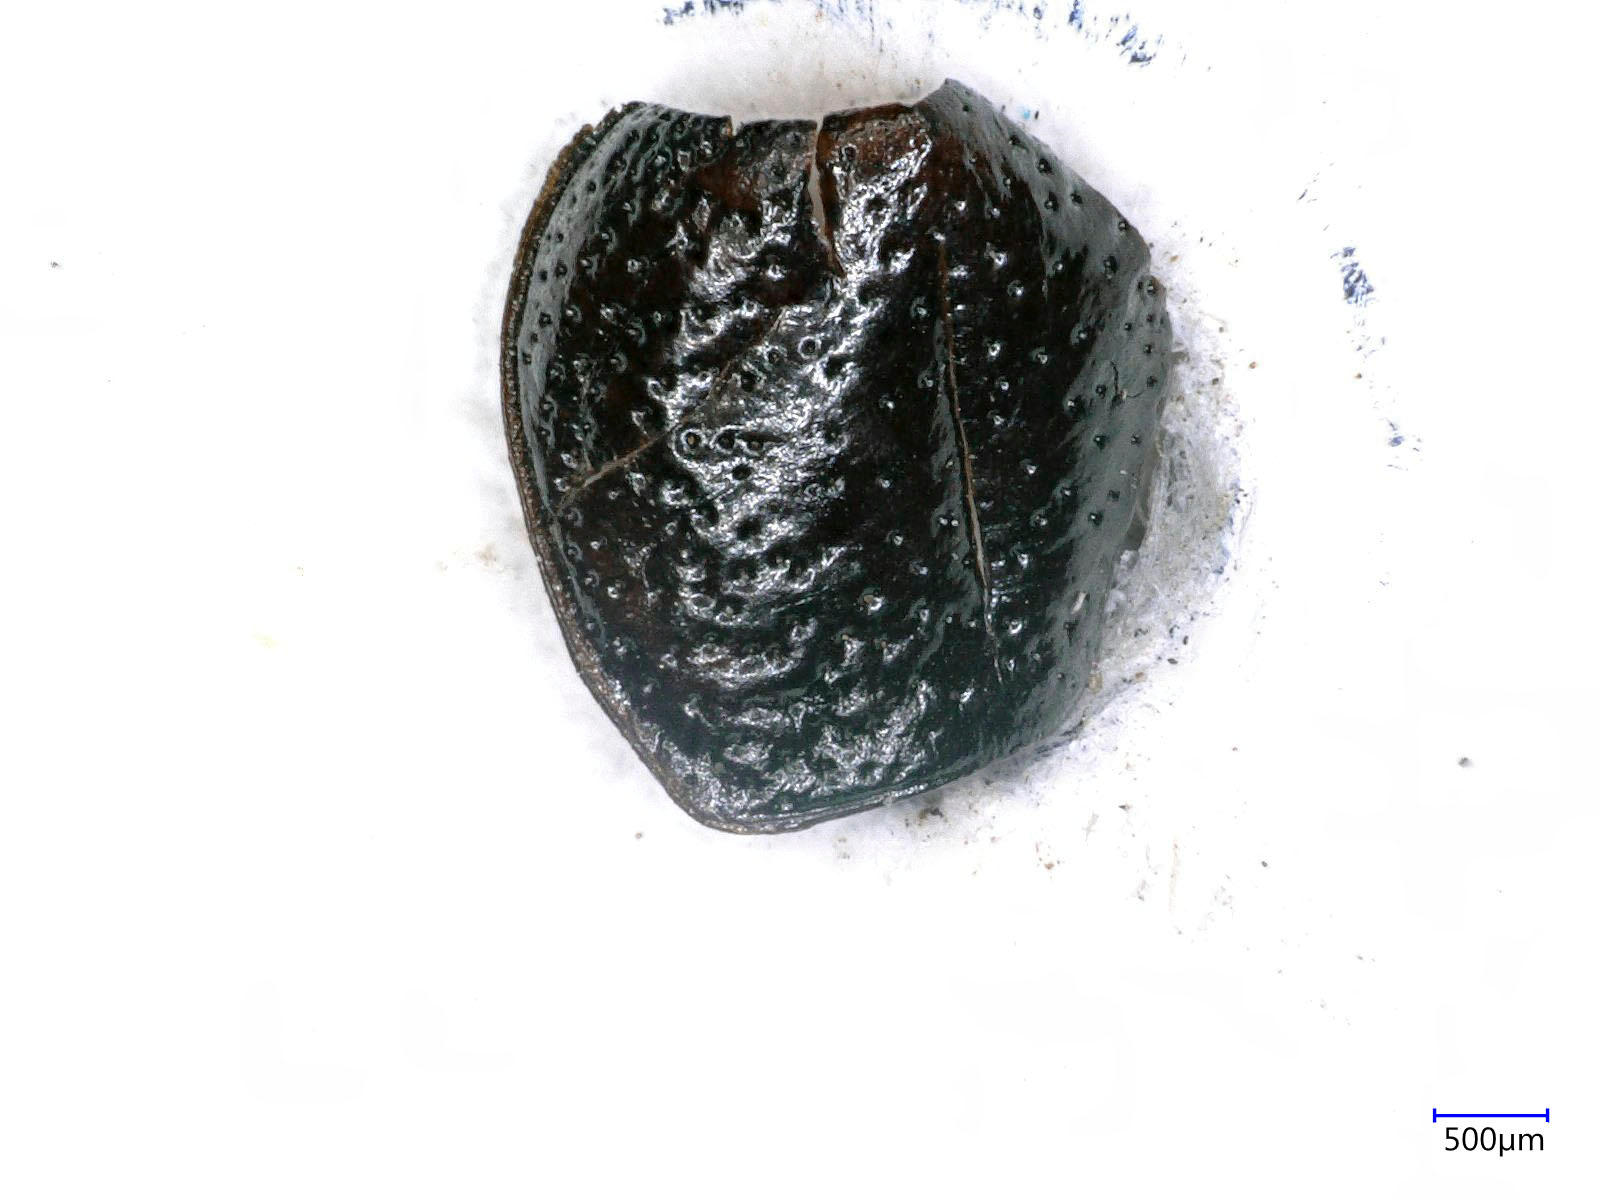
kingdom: Animalia
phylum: Arthropoda
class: Insecta
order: Coleoptera
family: Carabidae
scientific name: Carabidae
